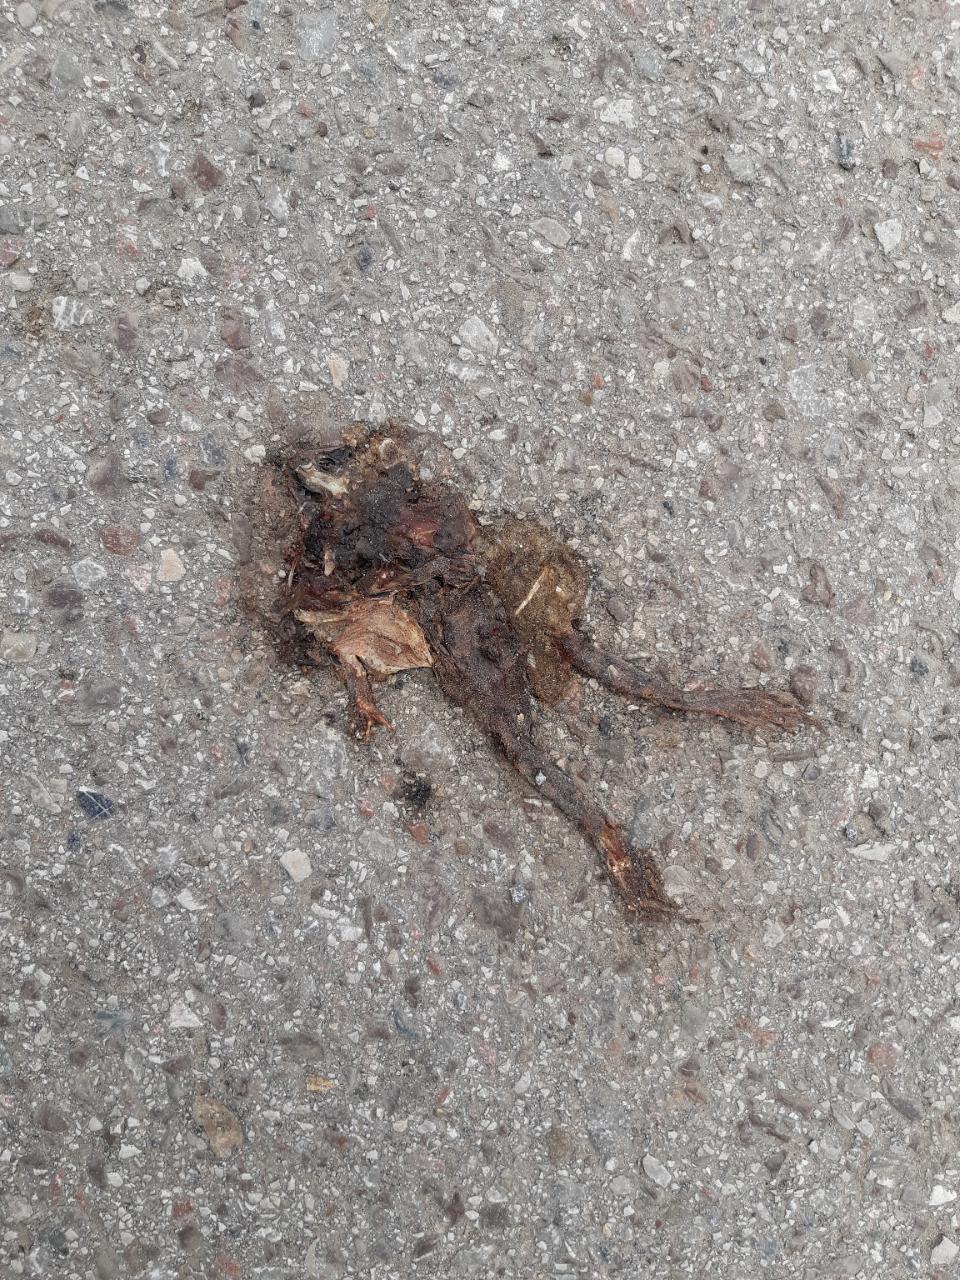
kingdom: Animalia
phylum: Chordata
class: Amphibia
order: Anura
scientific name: Anura
